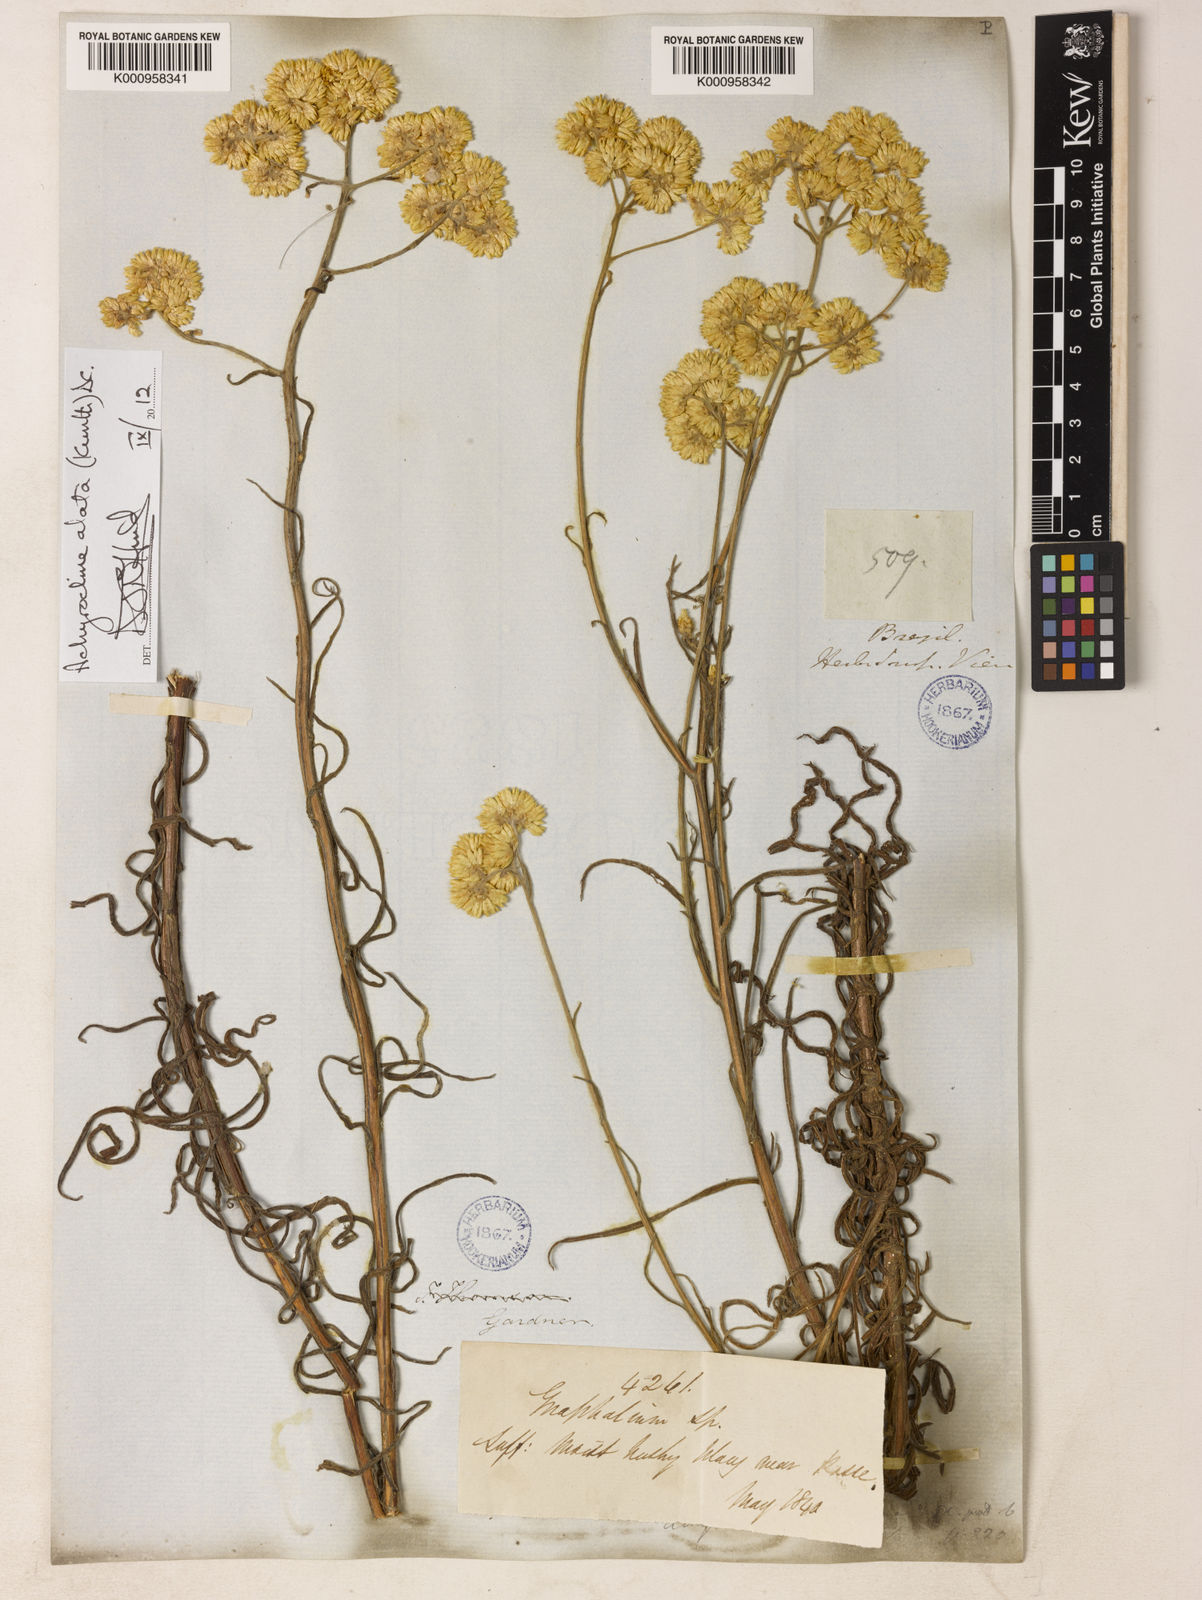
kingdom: Plantae
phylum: Tracheophyta
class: Magnoliopsida
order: Asterales
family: Asteraceae
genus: Achyrocline
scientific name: Achyrocline vauthieriana
